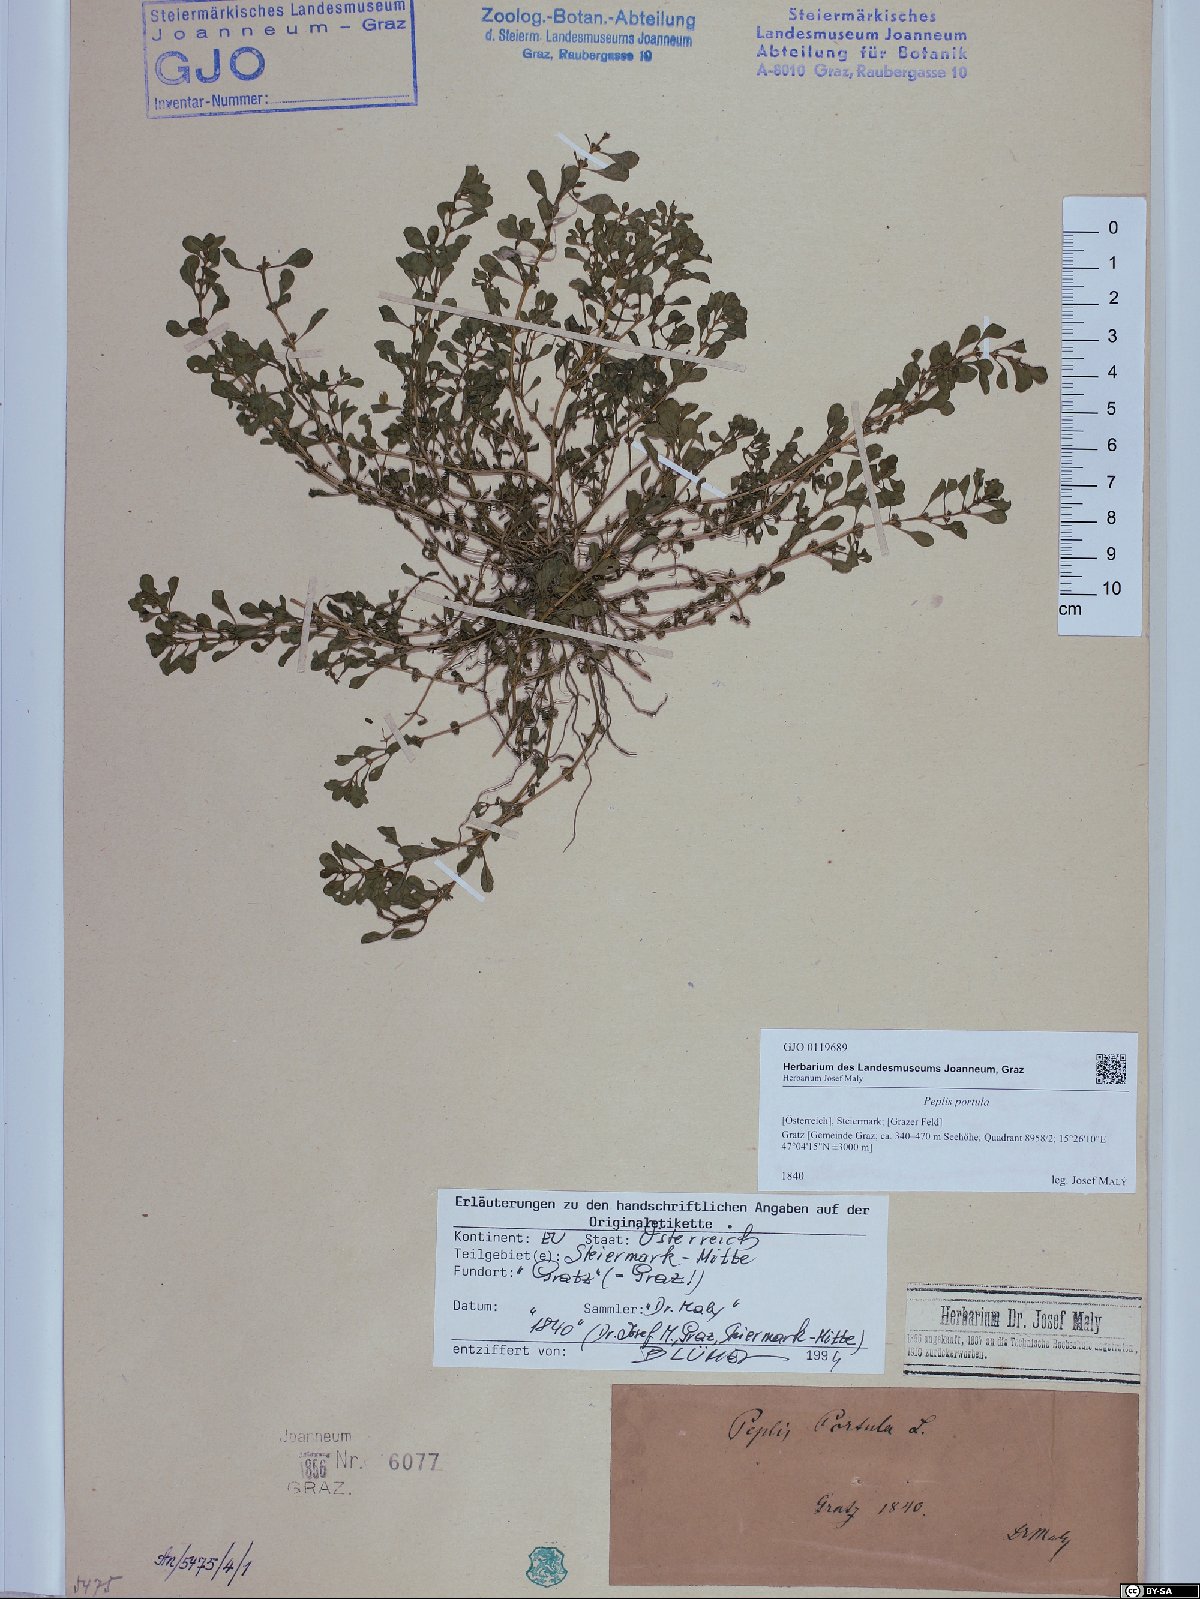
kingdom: Plantae
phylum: Tracheophyta
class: Magnoliopsida
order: Myrtales
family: Lythraceae
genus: Lythrum
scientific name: Lythrum portula
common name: Water purslane
